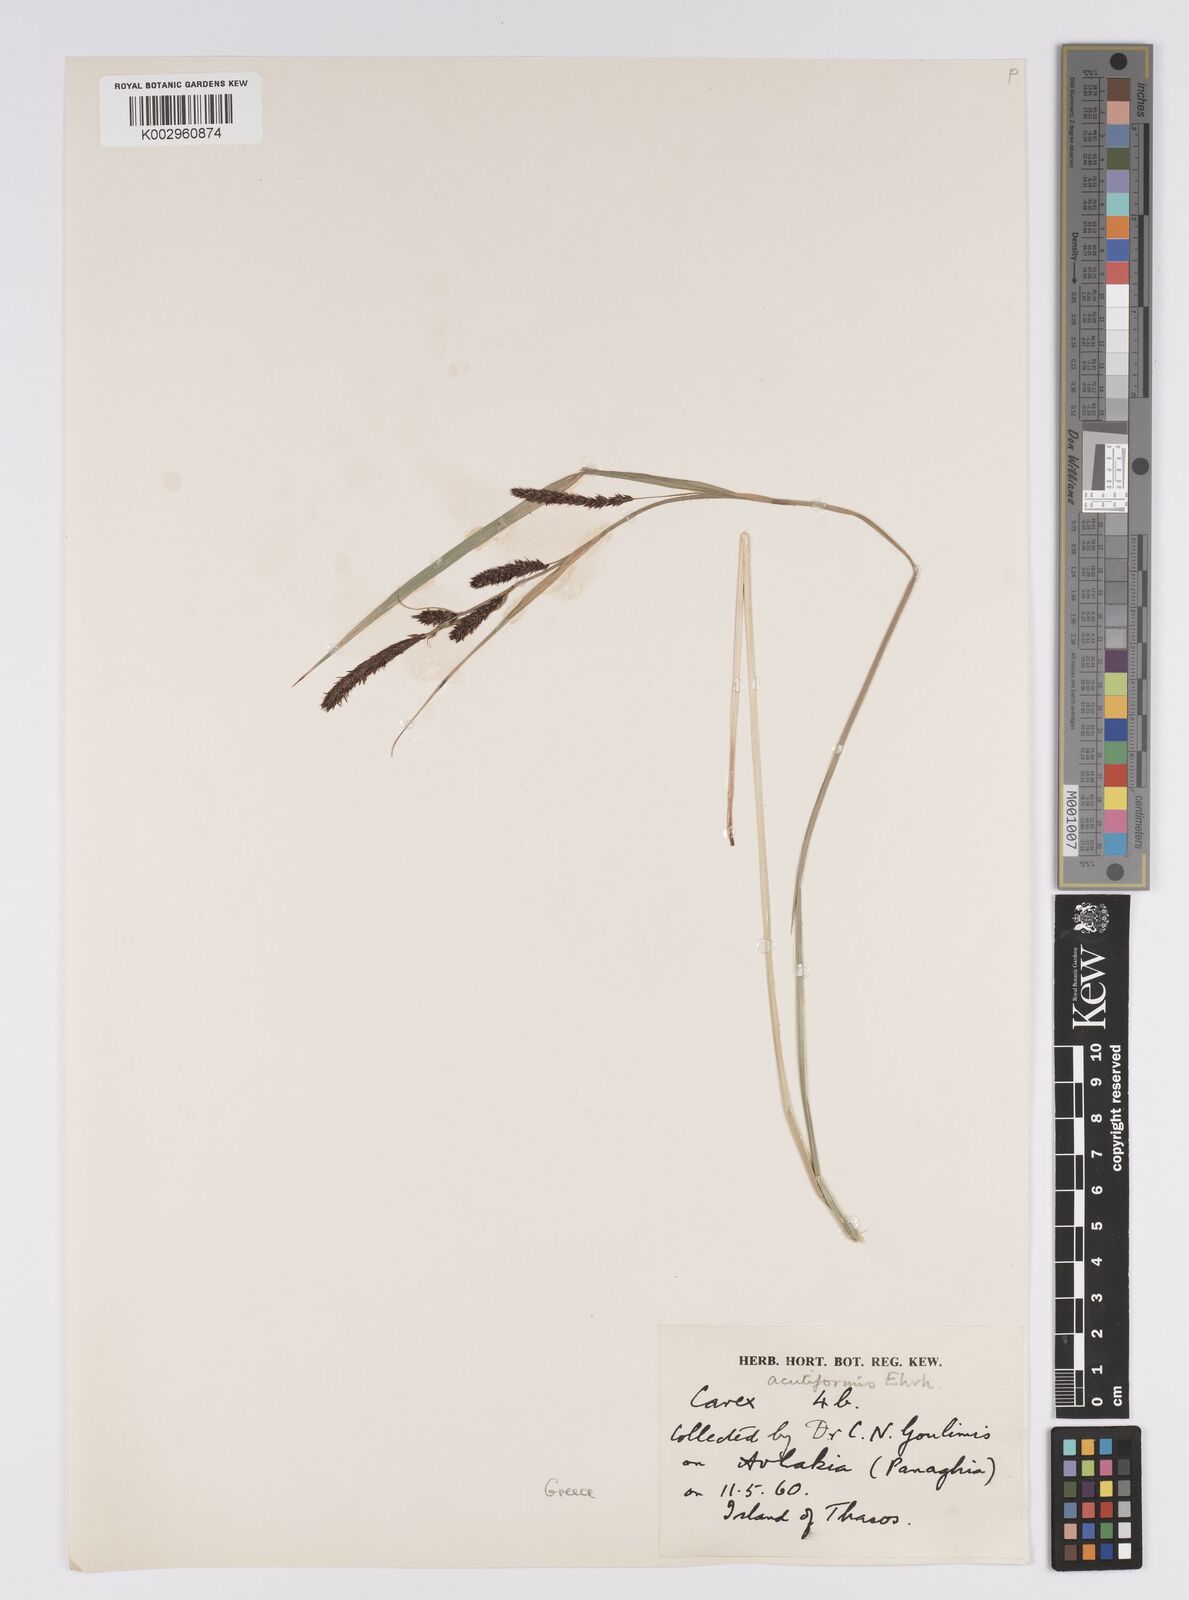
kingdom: Plantae
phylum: Tracheophyta
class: Liliopsida
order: Poales
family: Cyperaceae
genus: Carex
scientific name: Carex acutiformis
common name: Lesser pond-sedge
